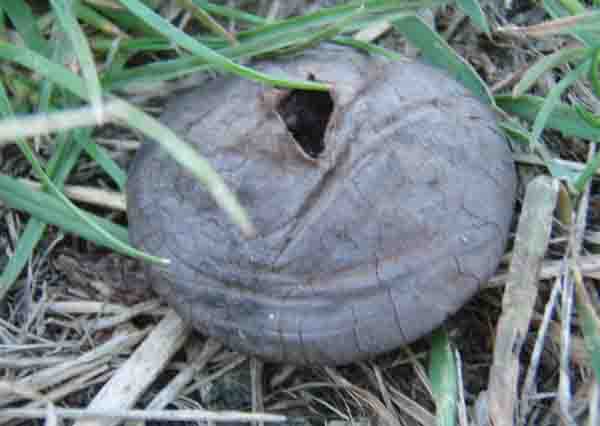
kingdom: Fungi
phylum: Basidiomycota
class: Agaricomycetes
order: Agaricales
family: Lycoperdaceae
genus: Bovista
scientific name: Bovista plumbea
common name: blygrå bovist
